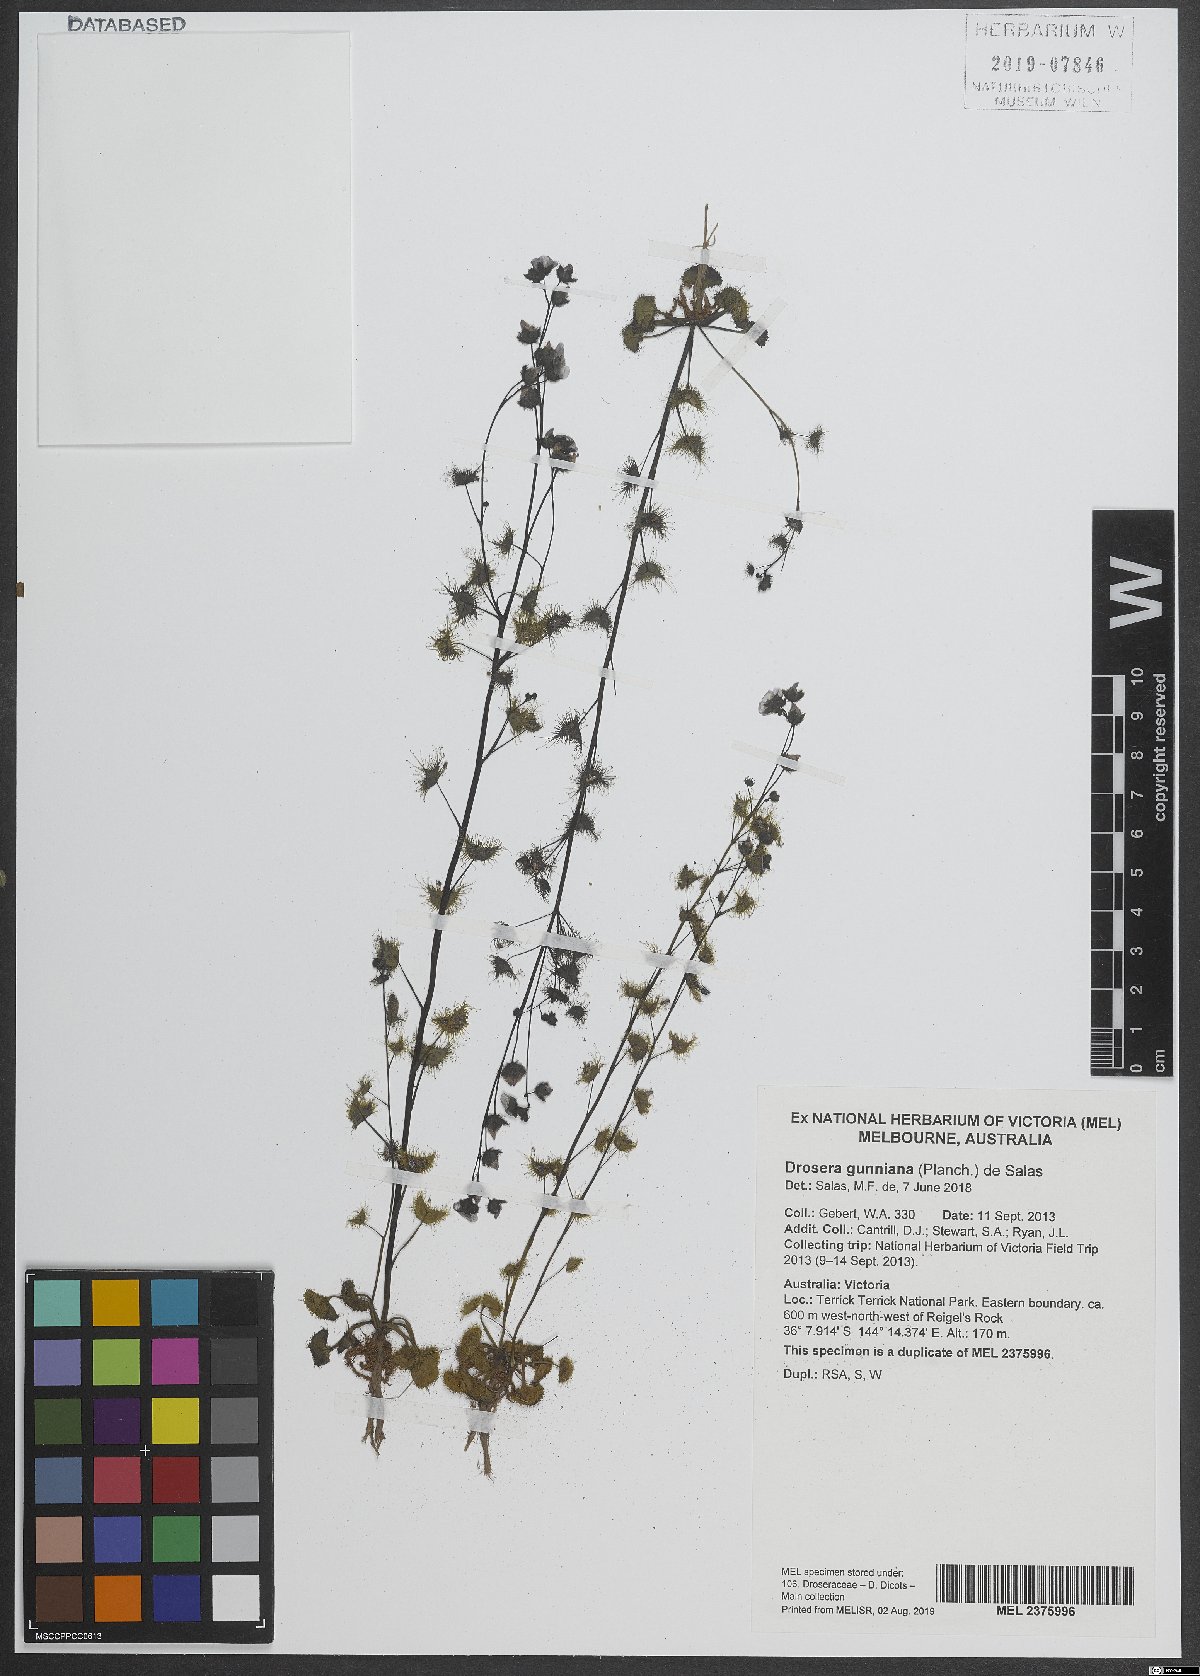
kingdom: Plantae
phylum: Tracheophyta
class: Magnoliopsida
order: Caryophyllales
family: Droseraceae
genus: Drosera
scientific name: Drosera gunniana
